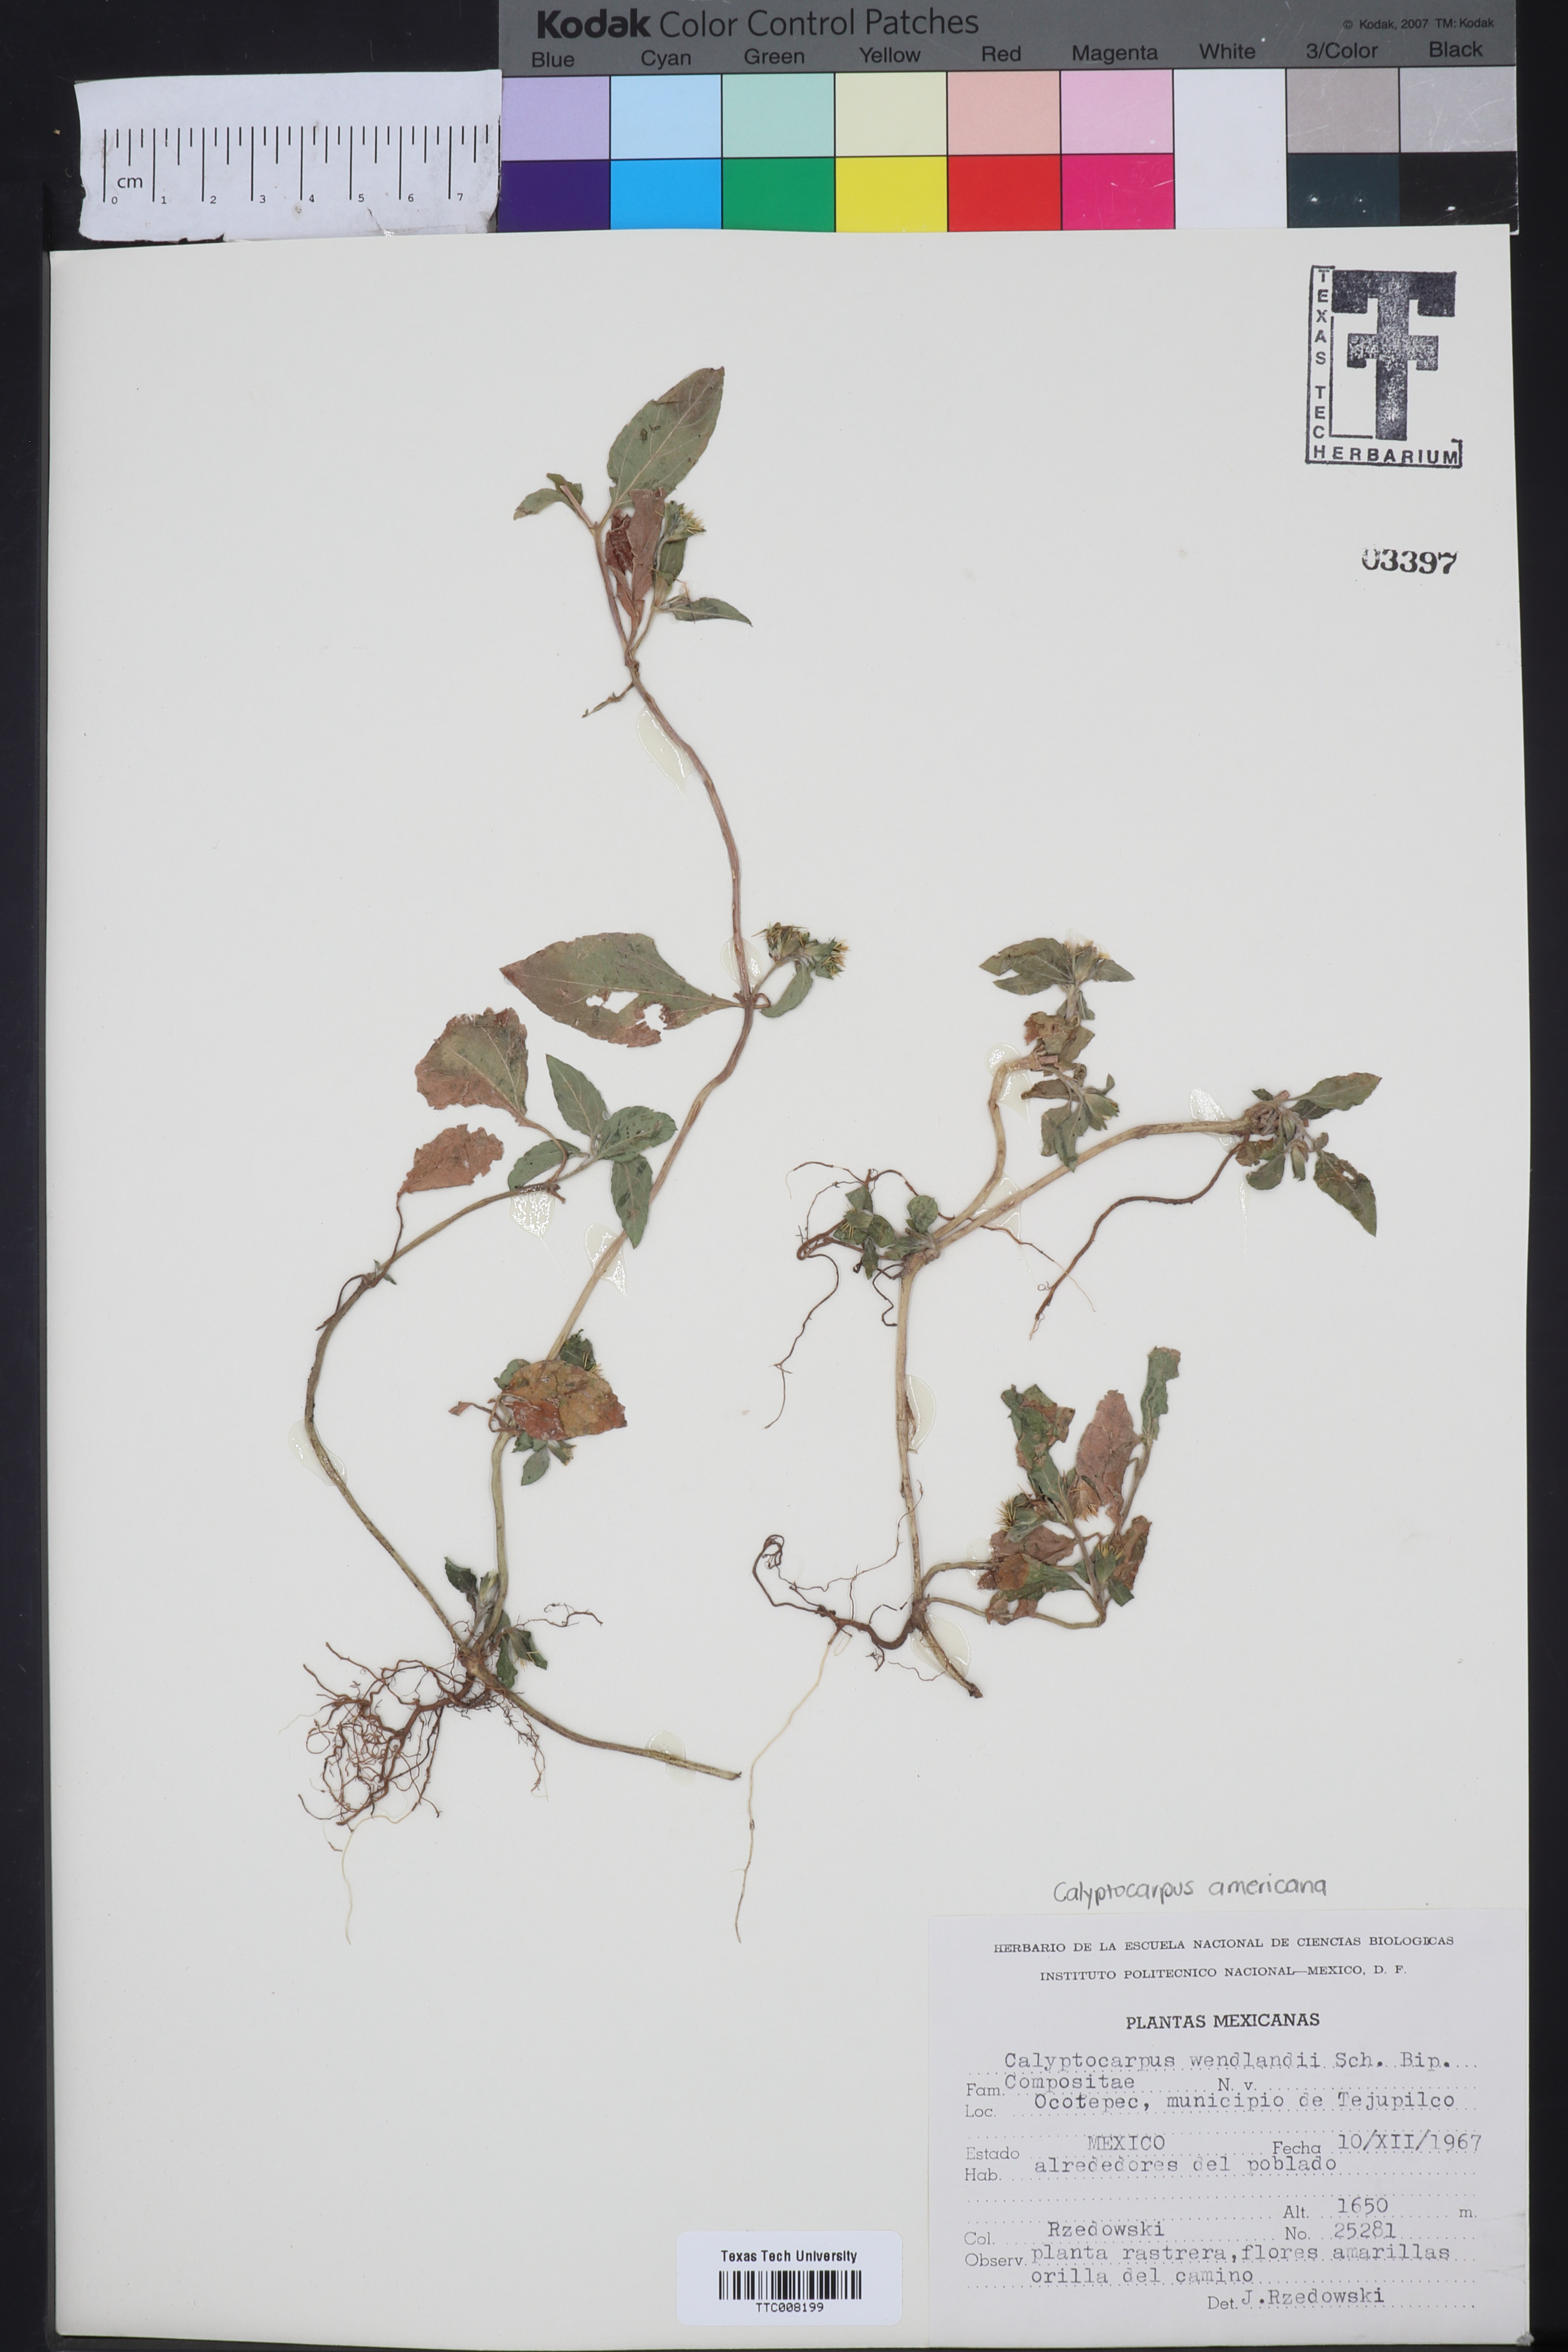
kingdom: Plantae
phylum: Tracheophyta
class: Magnoliopsida
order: Asterales
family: Asteraceae
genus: Calyptocarpus
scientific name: Calyptocarpus wendlandii
